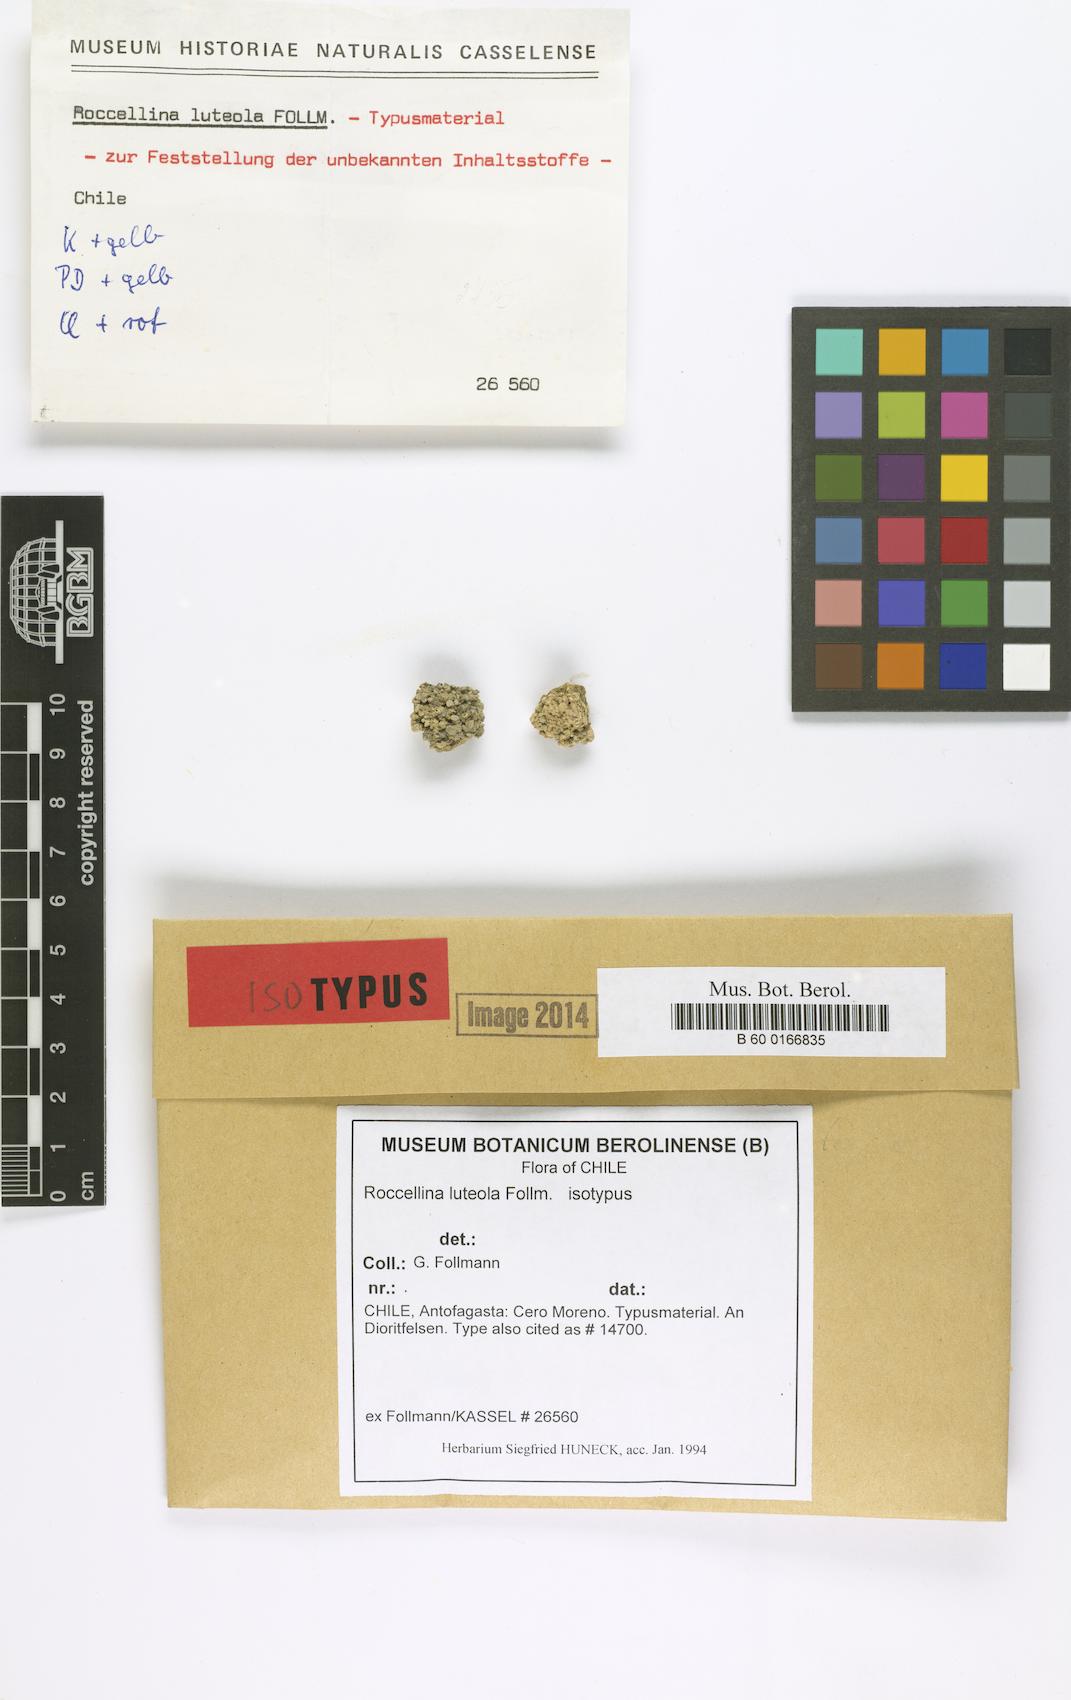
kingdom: Fungi
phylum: Ascomycota
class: Arthoniomycetes
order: Arthoniales
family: Roccellaceae
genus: Lecanactis
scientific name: Lecanactis luteola
